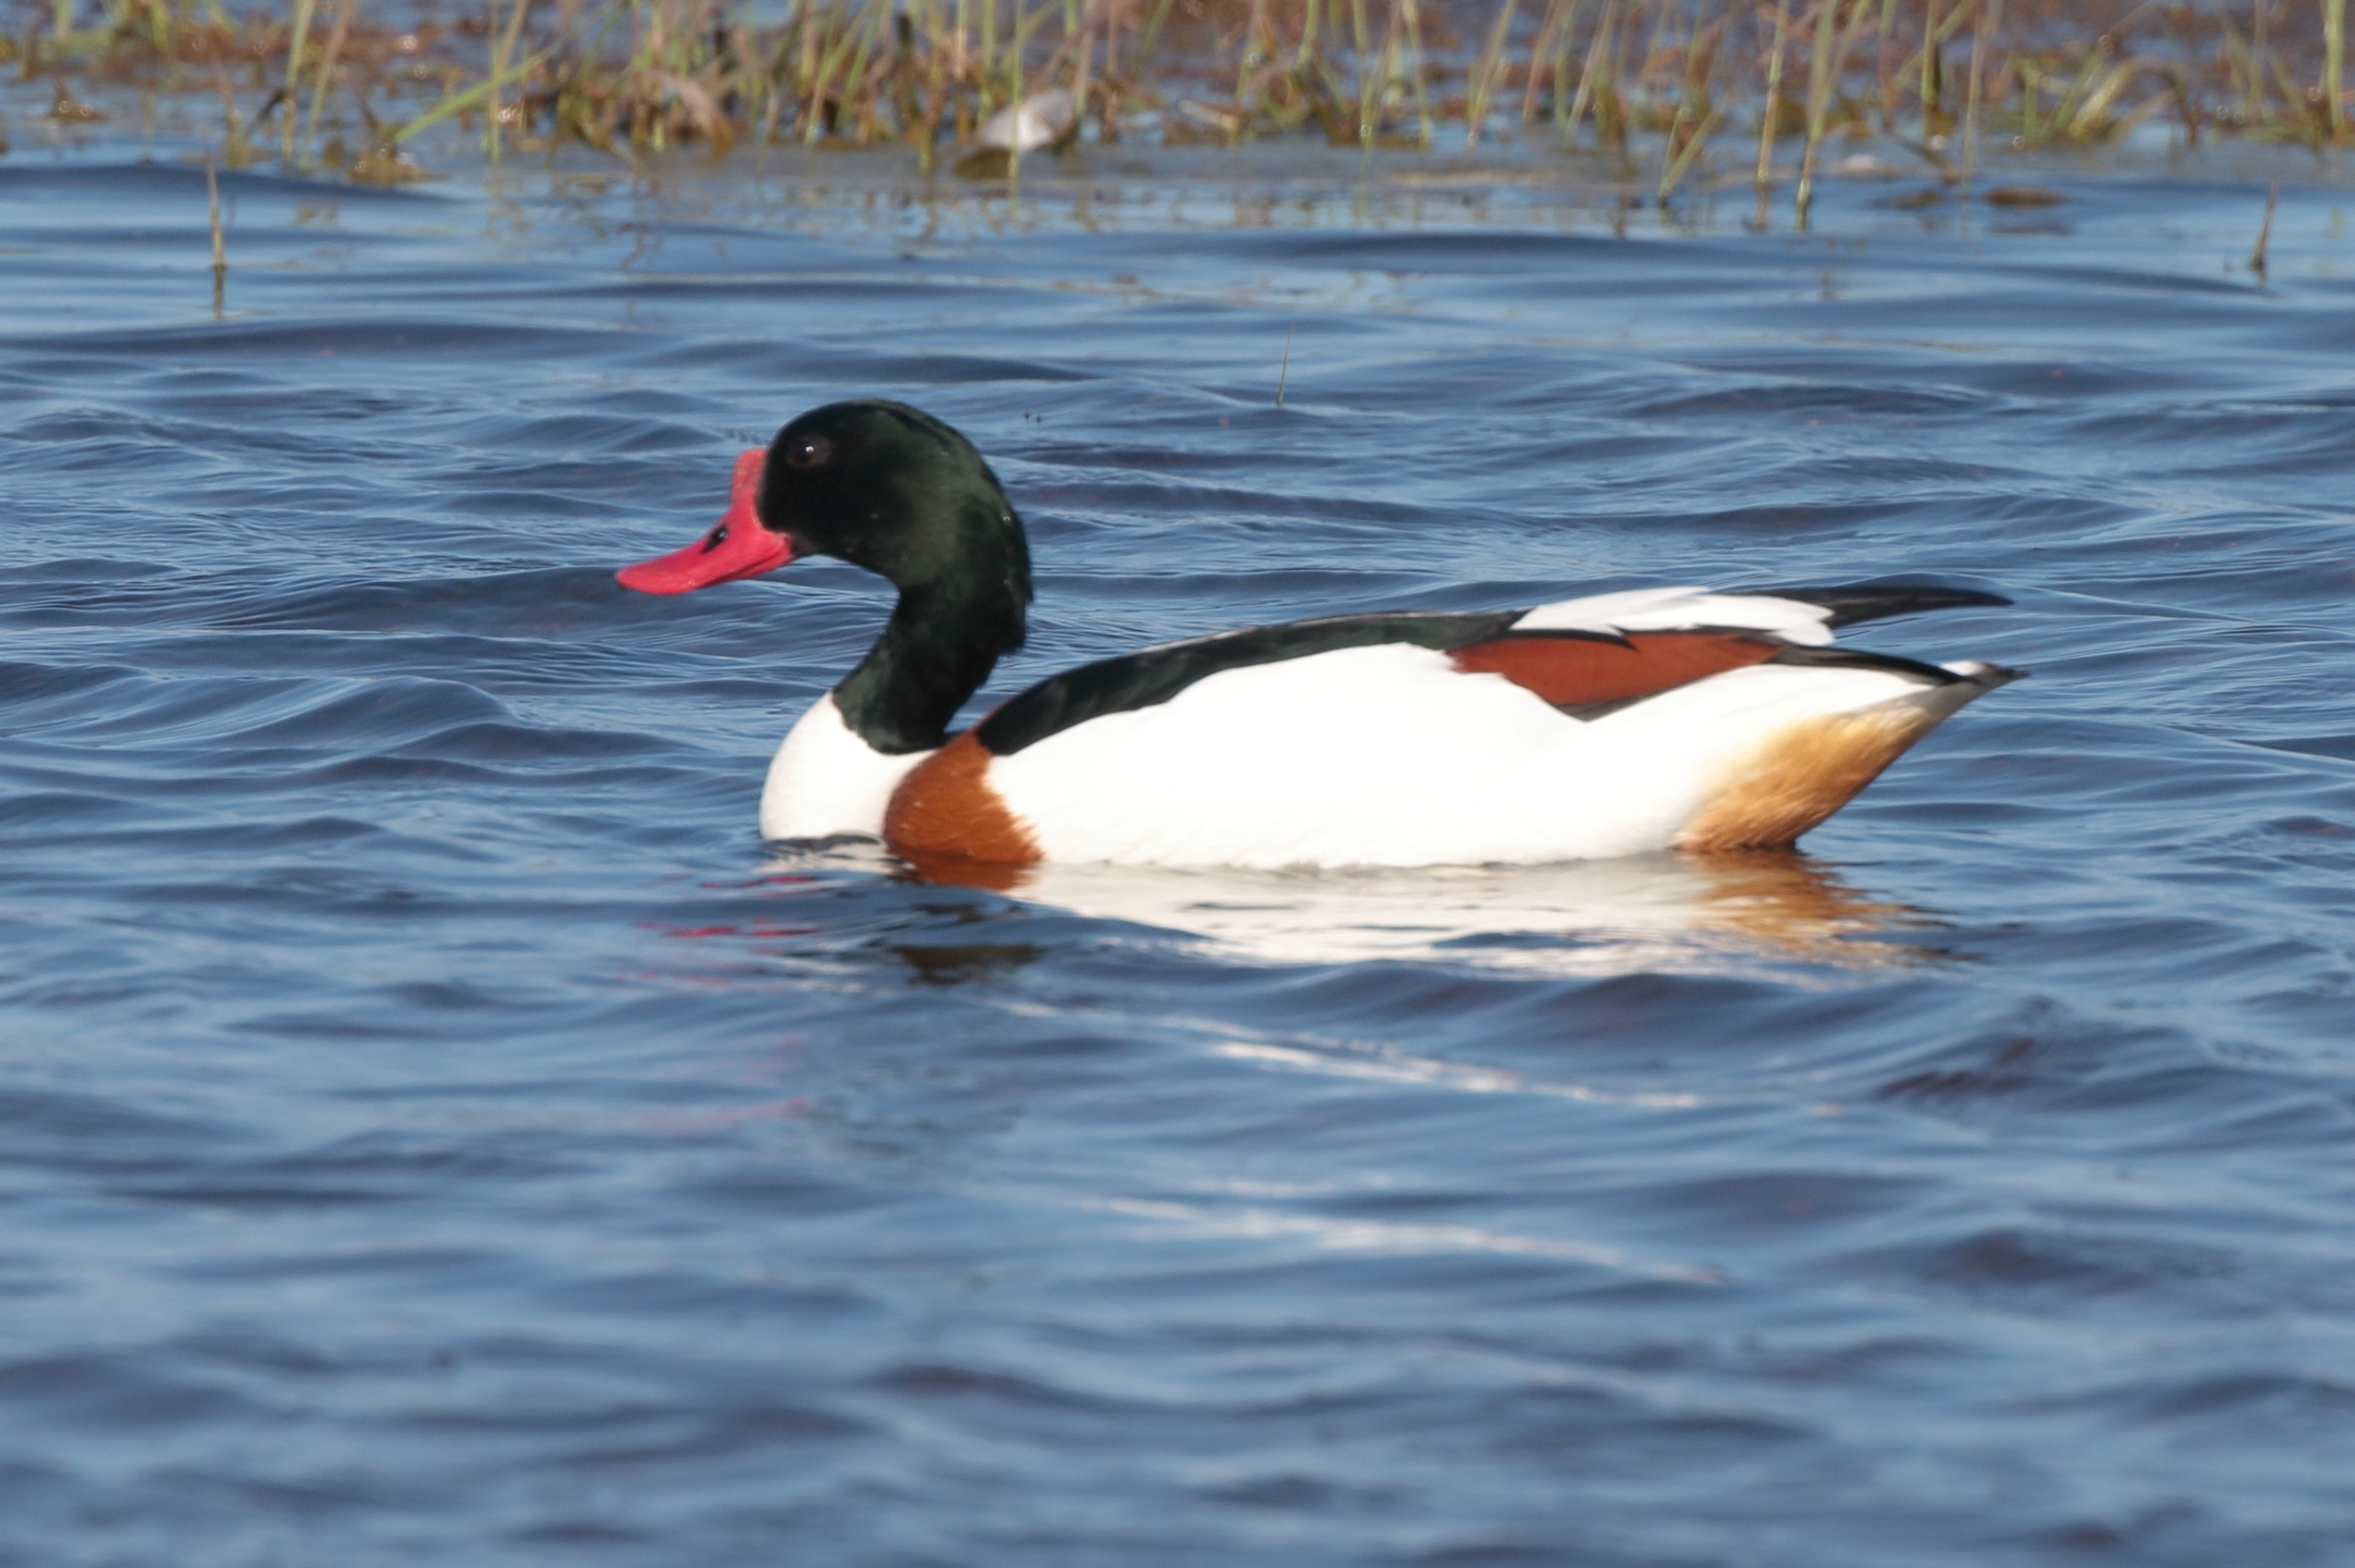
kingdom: Animalia
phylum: Chordata
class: Aves
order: Anseriformes
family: Anatidae
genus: Tadorna
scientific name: Tadorna tadorna
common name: Gravand
